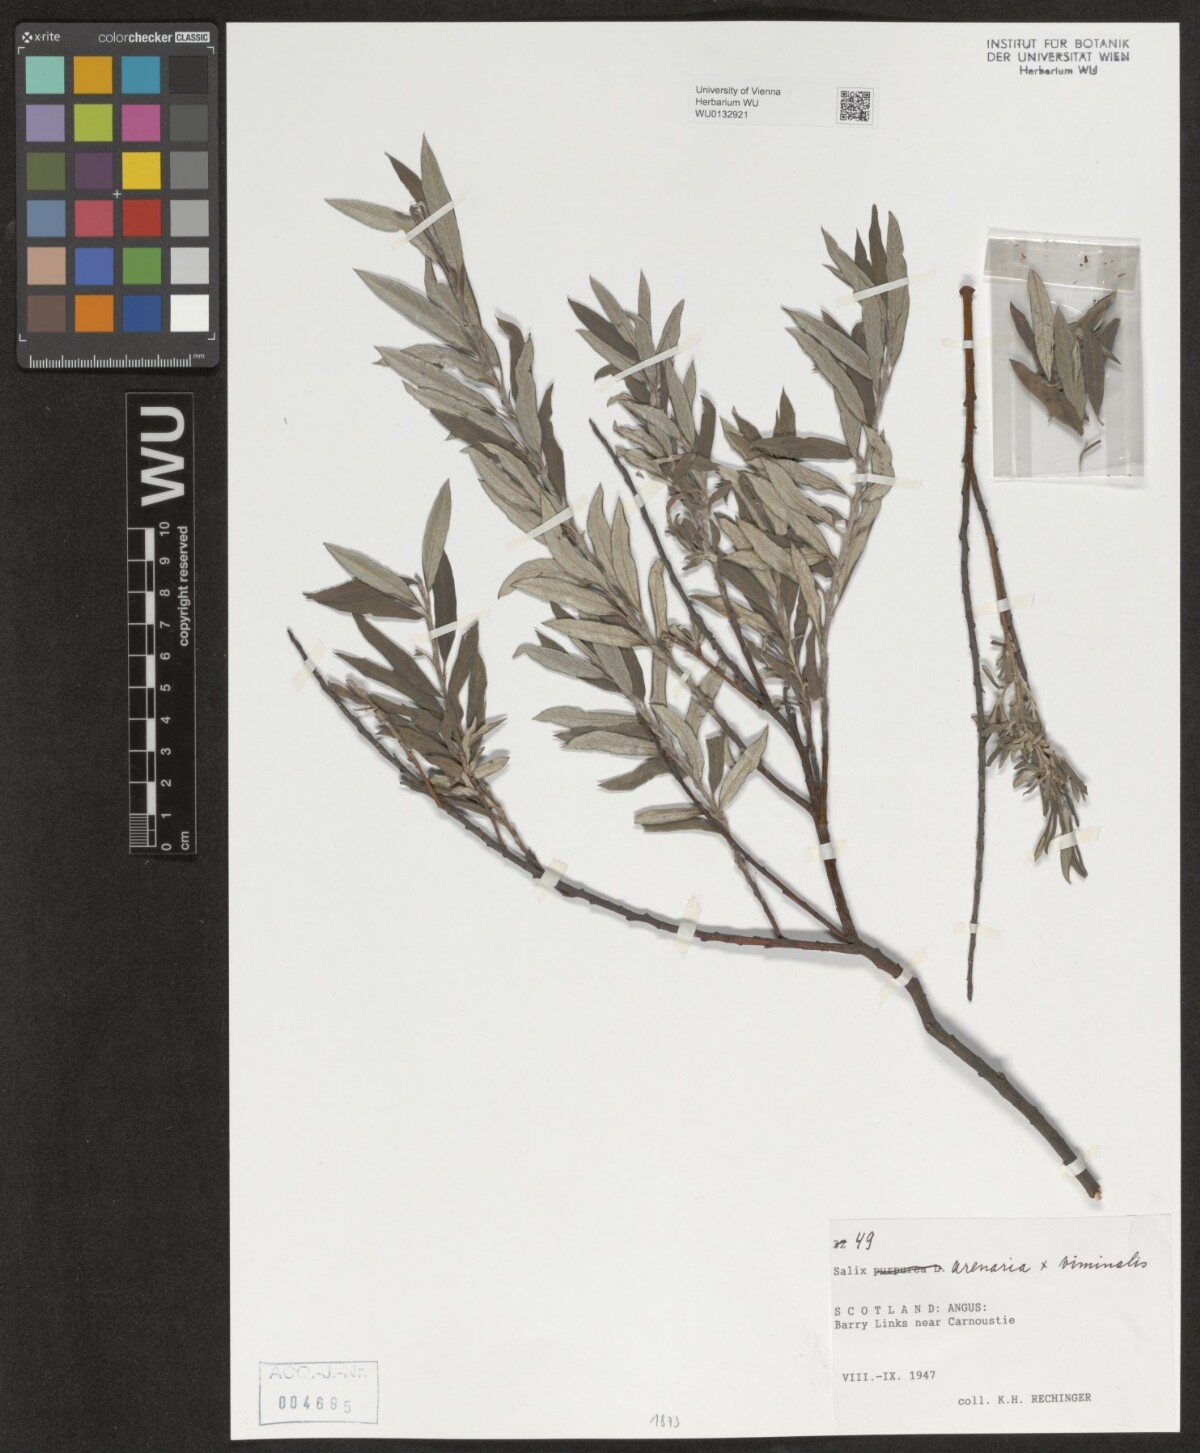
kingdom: Plantae
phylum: Tracheophyta
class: Magnoliopsida
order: Malpighiales
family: Salicaceae
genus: Salix
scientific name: Salix repens
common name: Creeping willow
